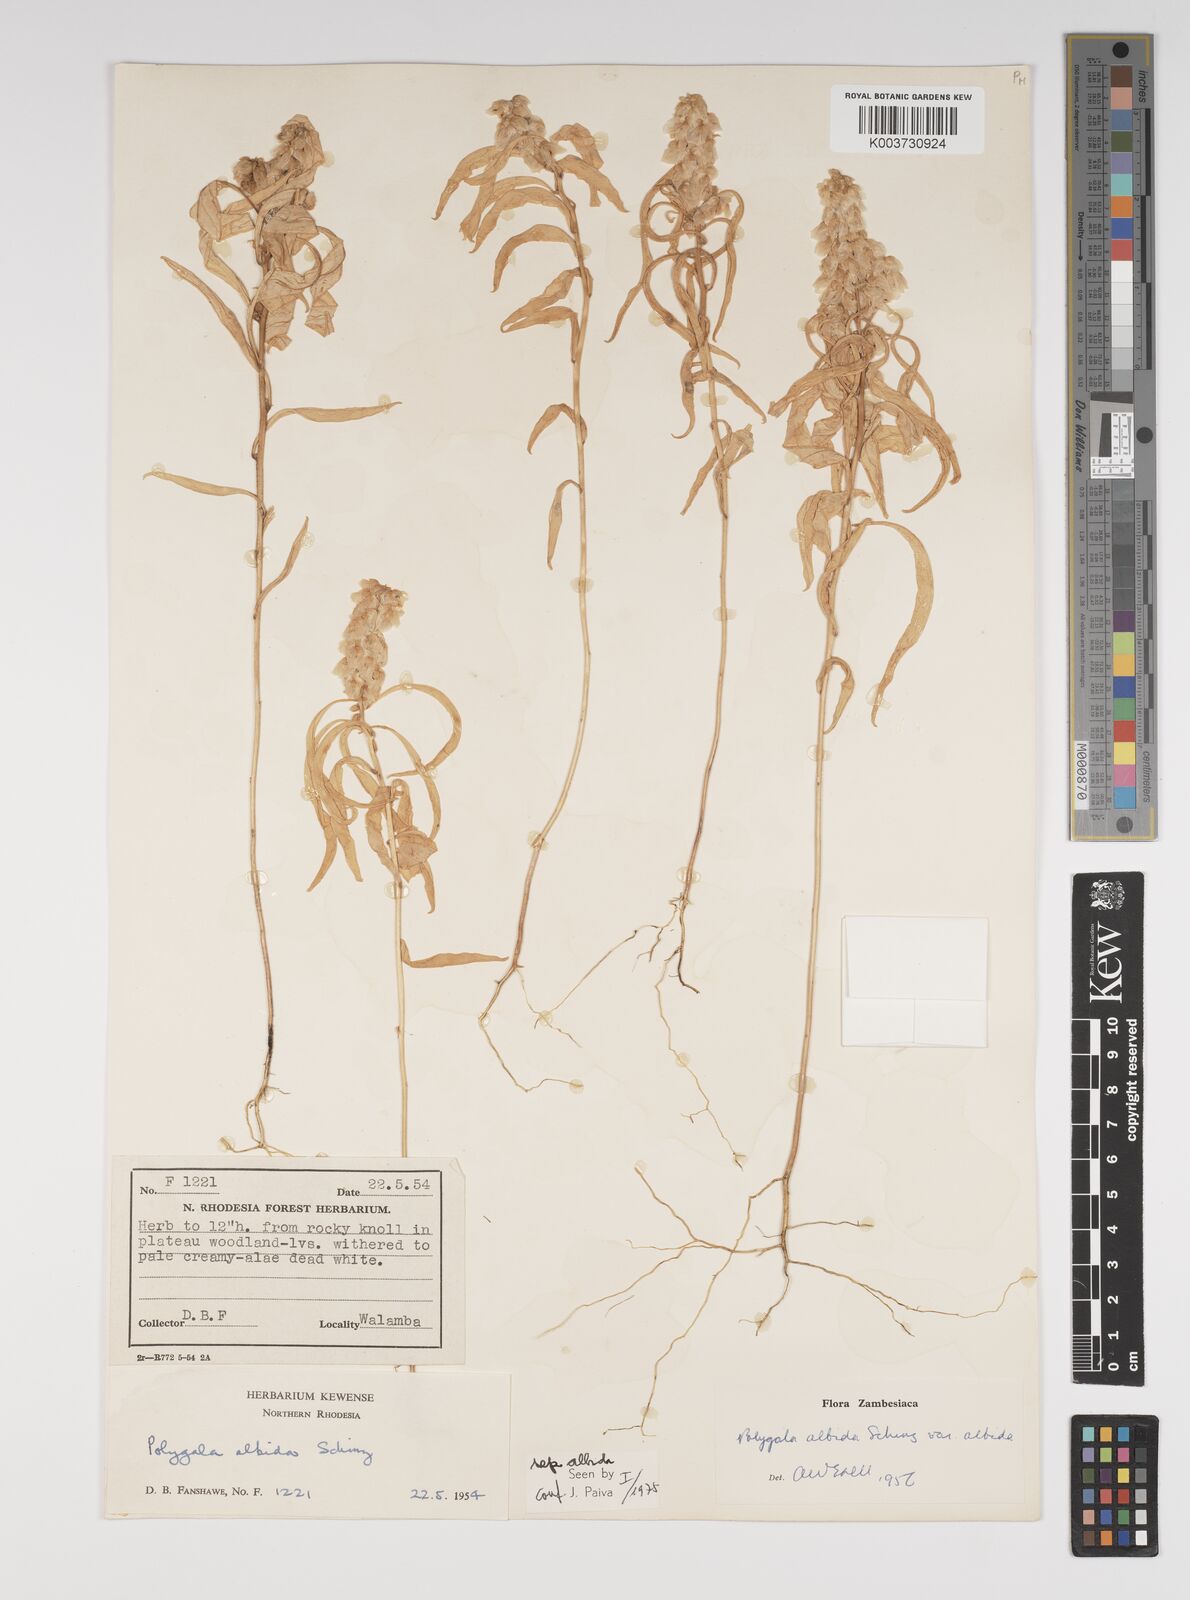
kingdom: Plantae
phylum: Tracheophyta
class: Magnoliopsida
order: Fabales
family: Polygalaceae
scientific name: Polygalaceae
